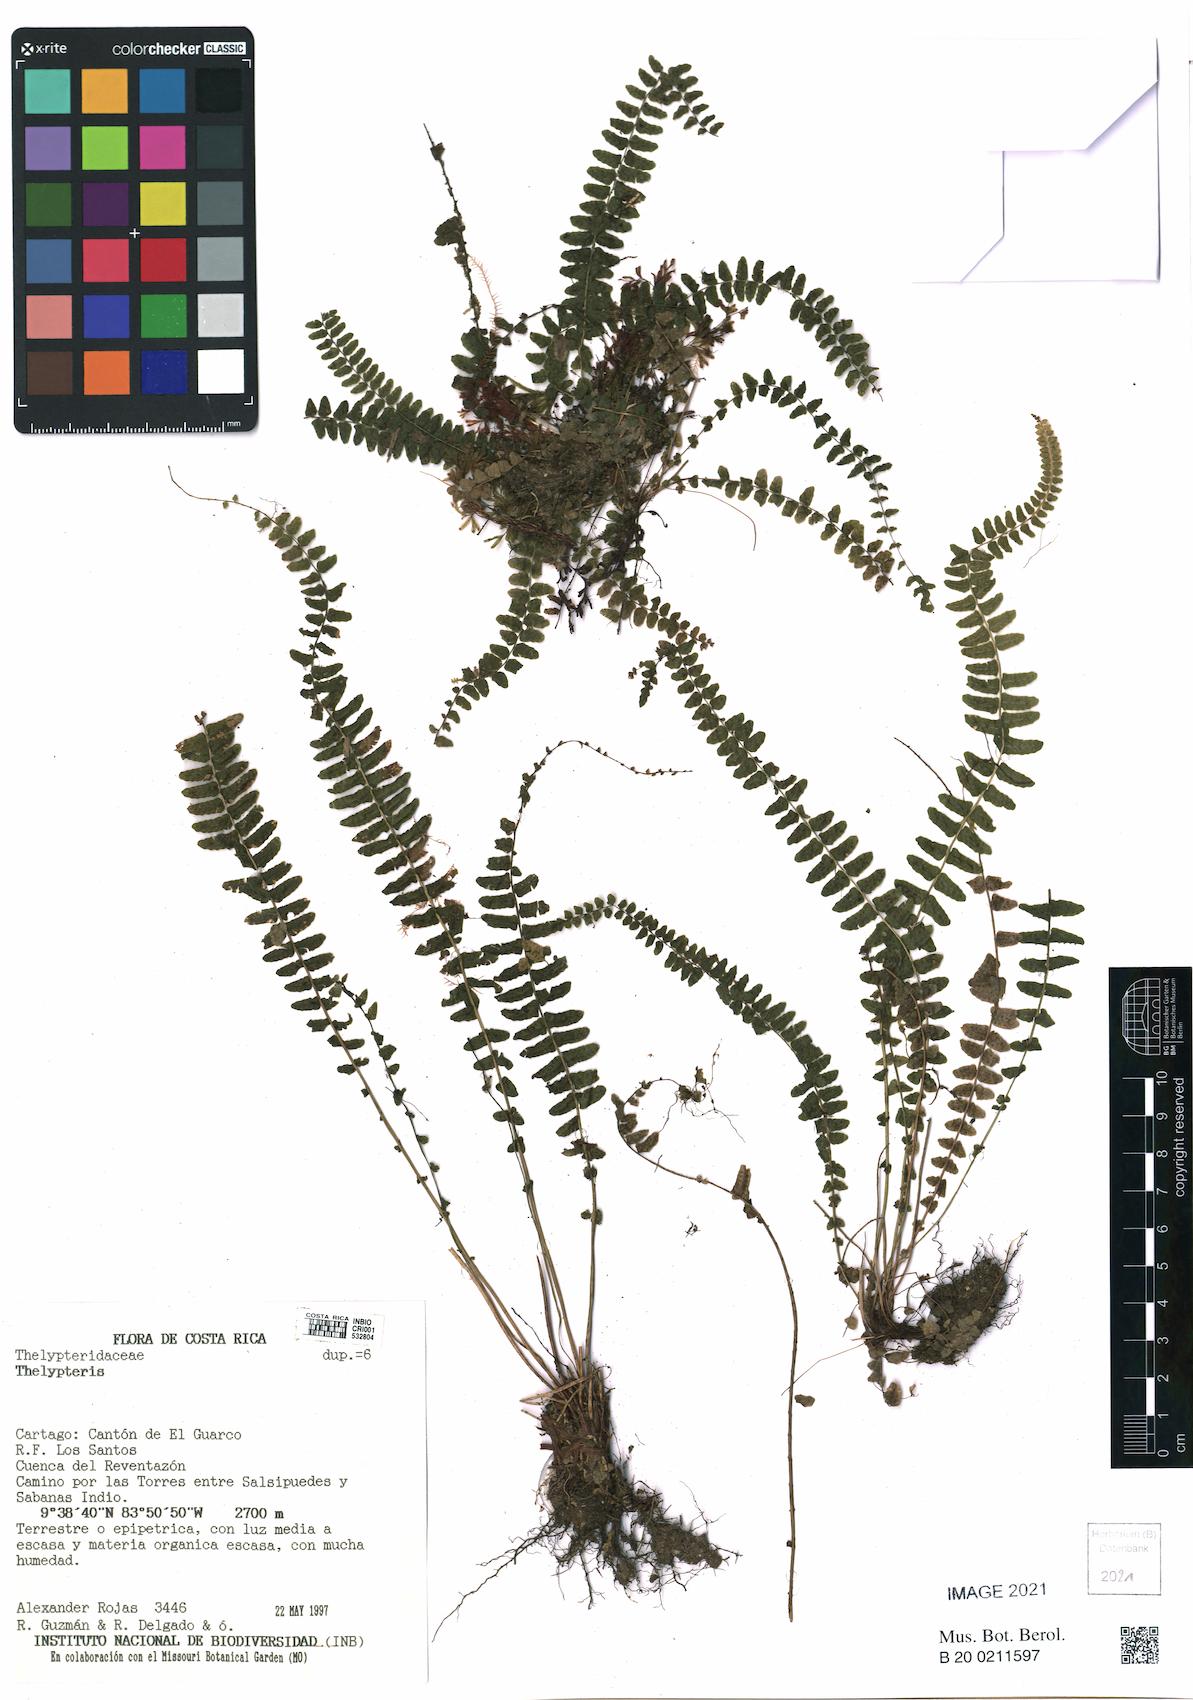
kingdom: Plantae
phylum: Tracheophyta
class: Polypodiopsida
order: Polypodiales
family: Thelypteridaceae
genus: Thelypteris
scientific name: Thelypteris
